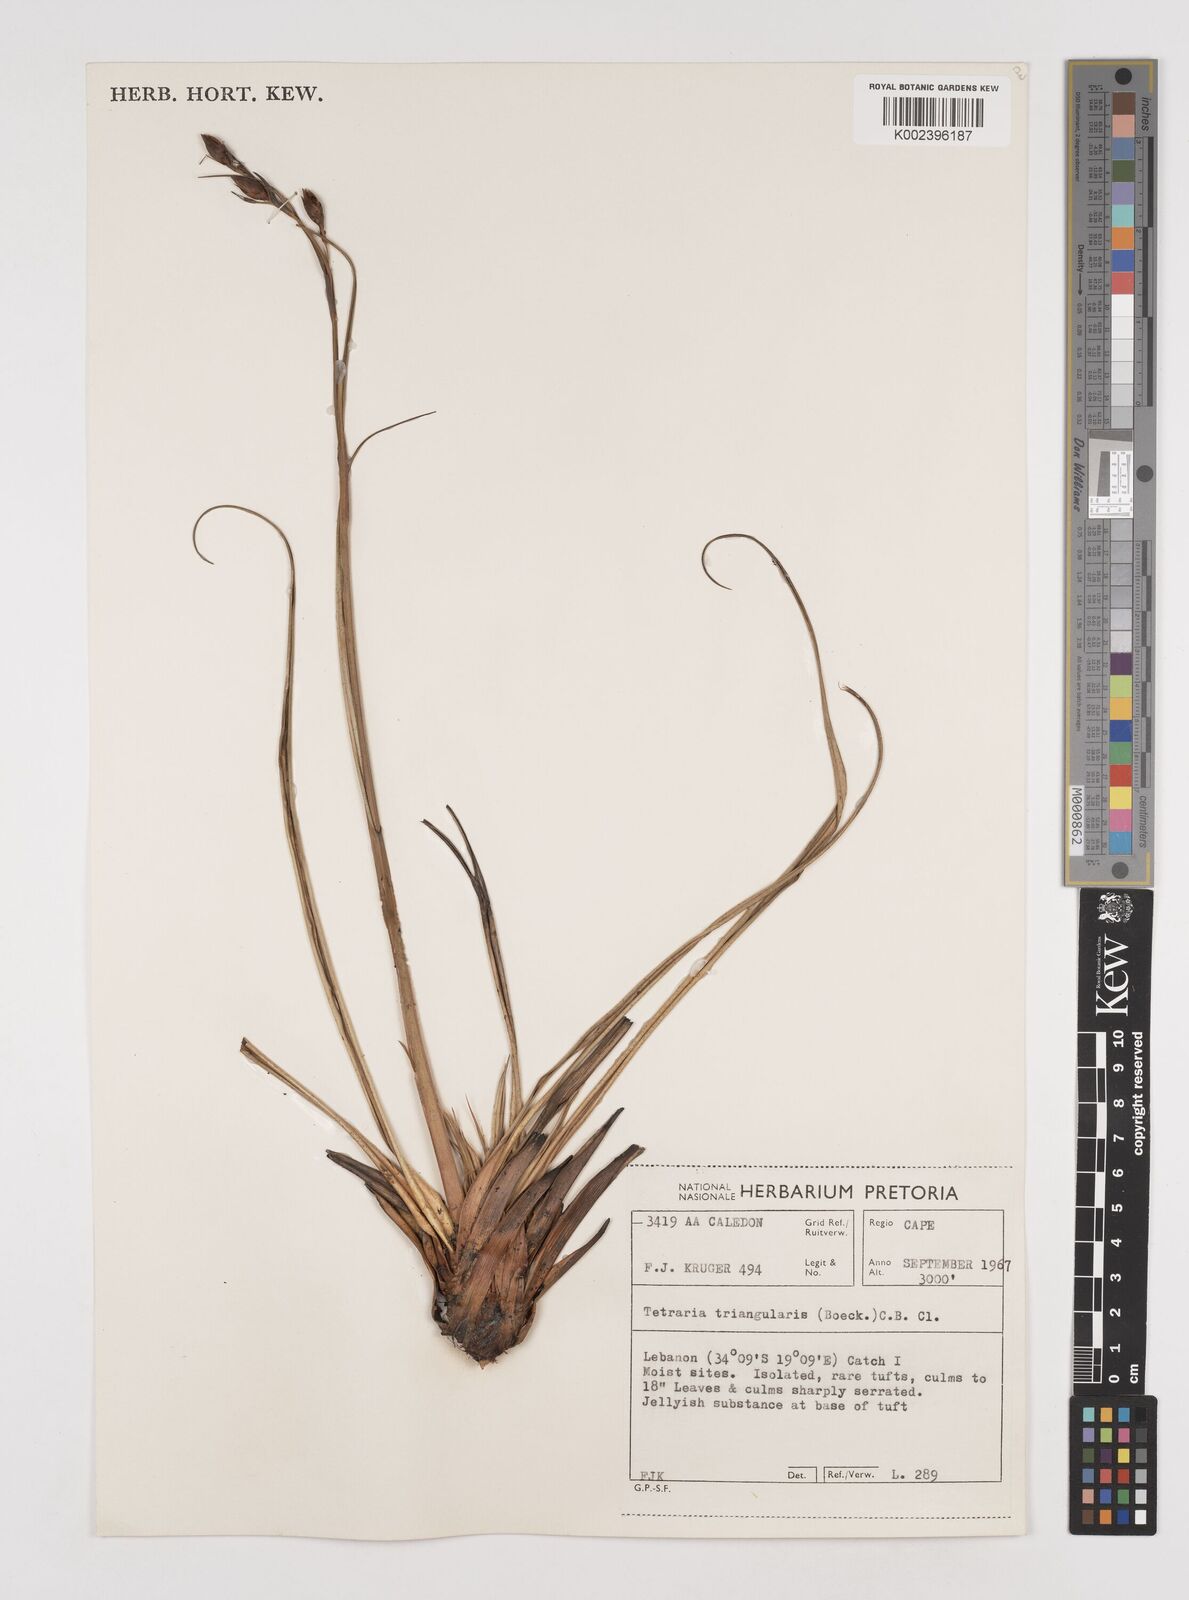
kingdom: Plantae
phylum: Tracheophyta
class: Liliopsida
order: Poales
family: Cyperaceae
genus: Tetraria
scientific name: Tetraria triangularis
